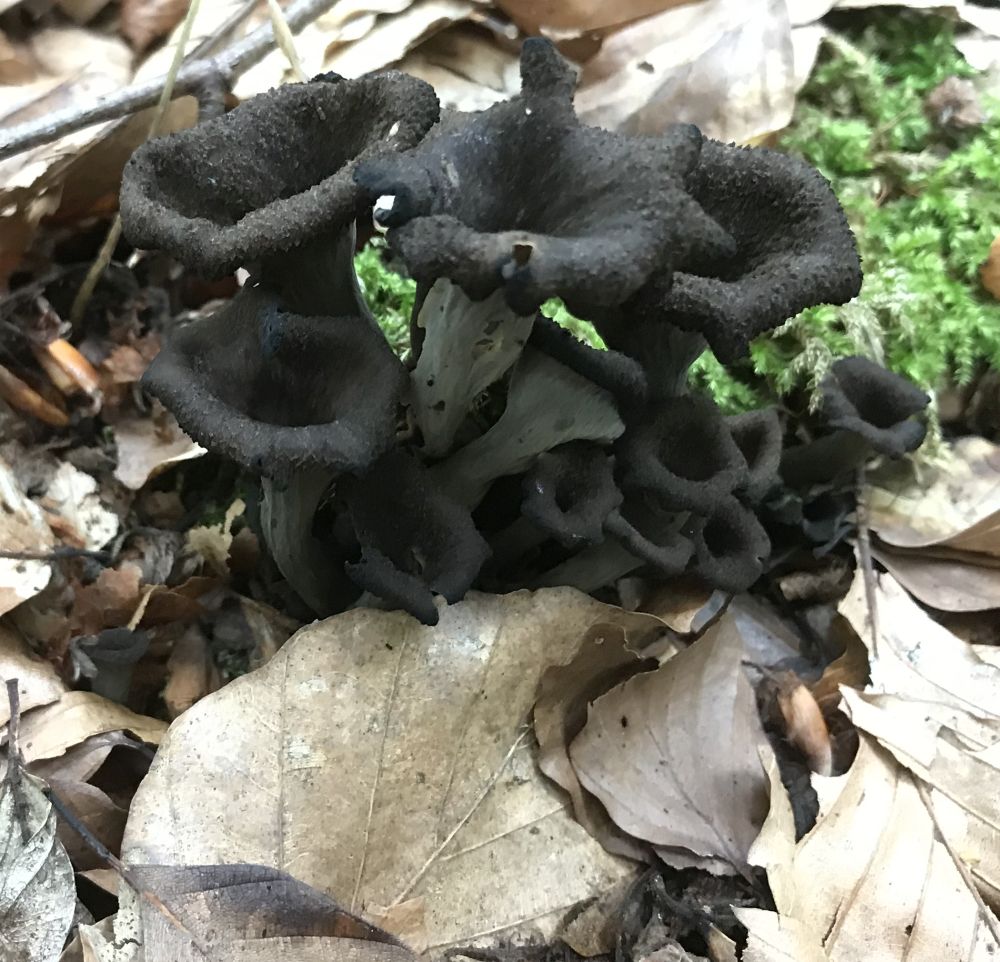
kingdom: Fungi
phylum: Basidiomycota
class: Agaricomycetes
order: Cantharellales
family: Hydnaceae
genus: Craterellus
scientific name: Craterellus cornucopioides
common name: trompetsvamp
